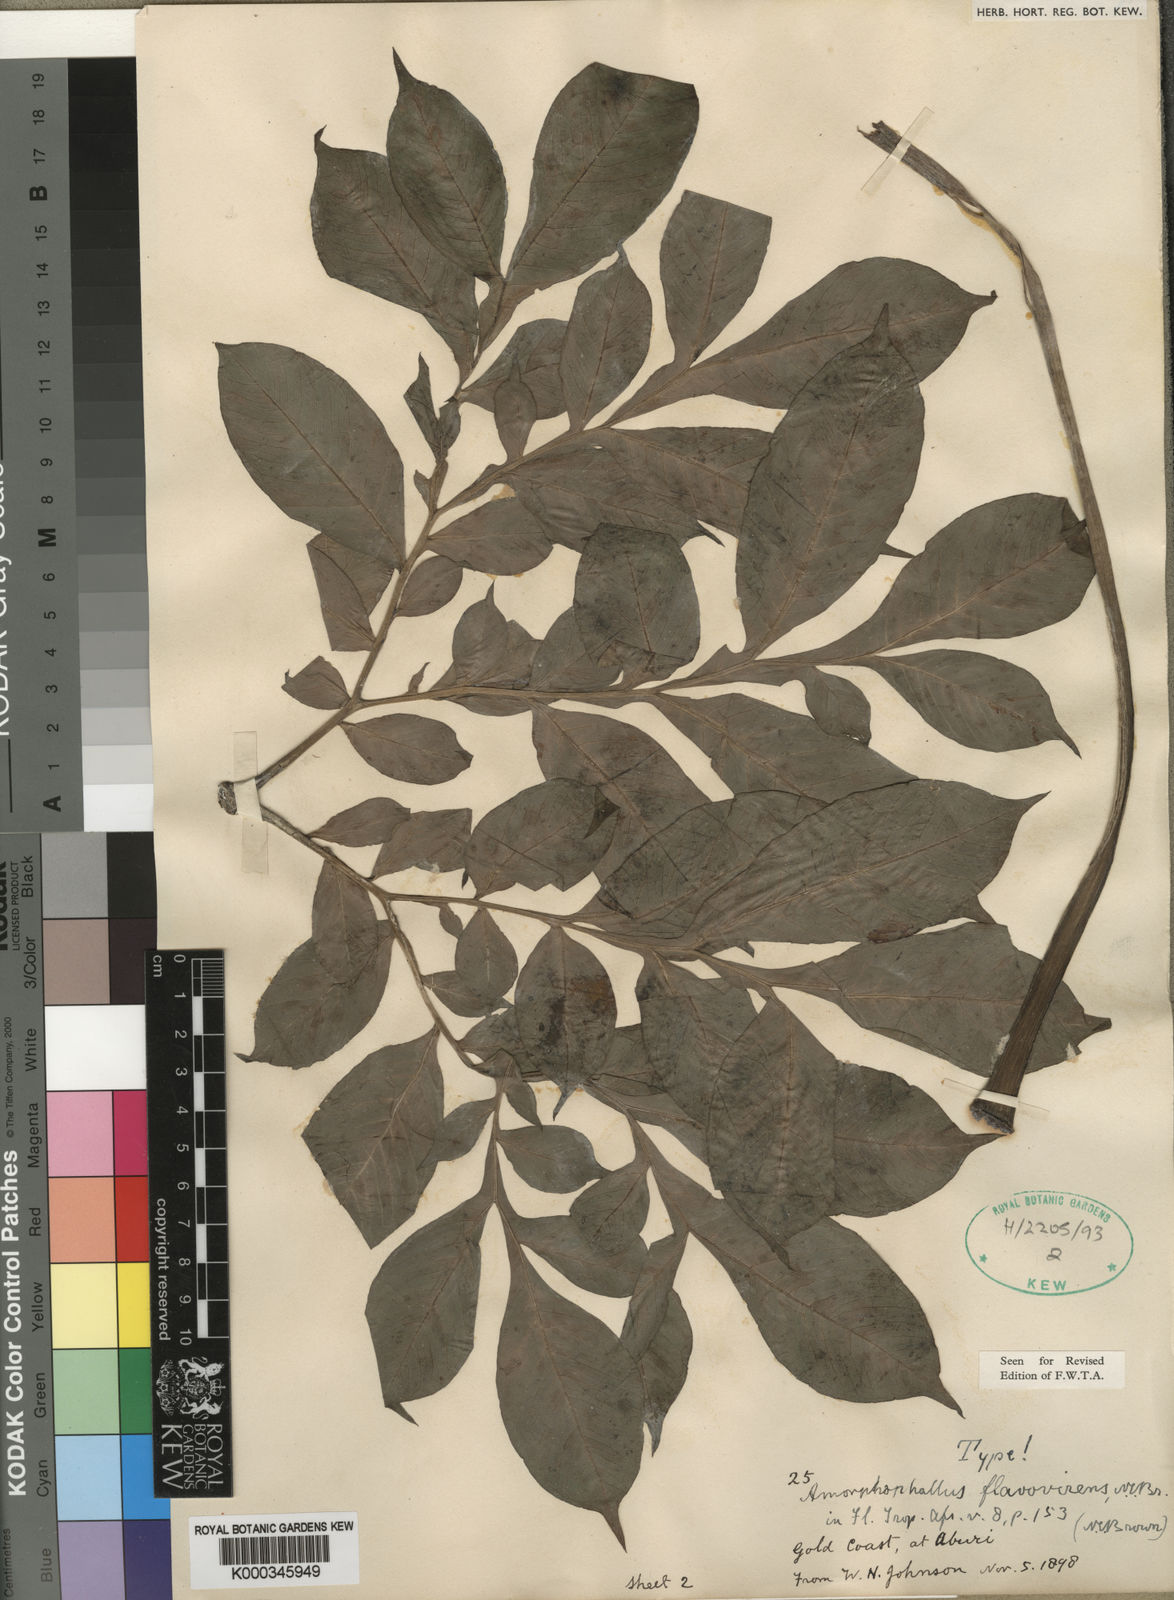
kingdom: Plantae
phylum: Tracheophyta
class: Liliopsida
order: Alismatales
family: Araceae
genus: Amorphophallus
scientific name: Amorphophallus baumannii
